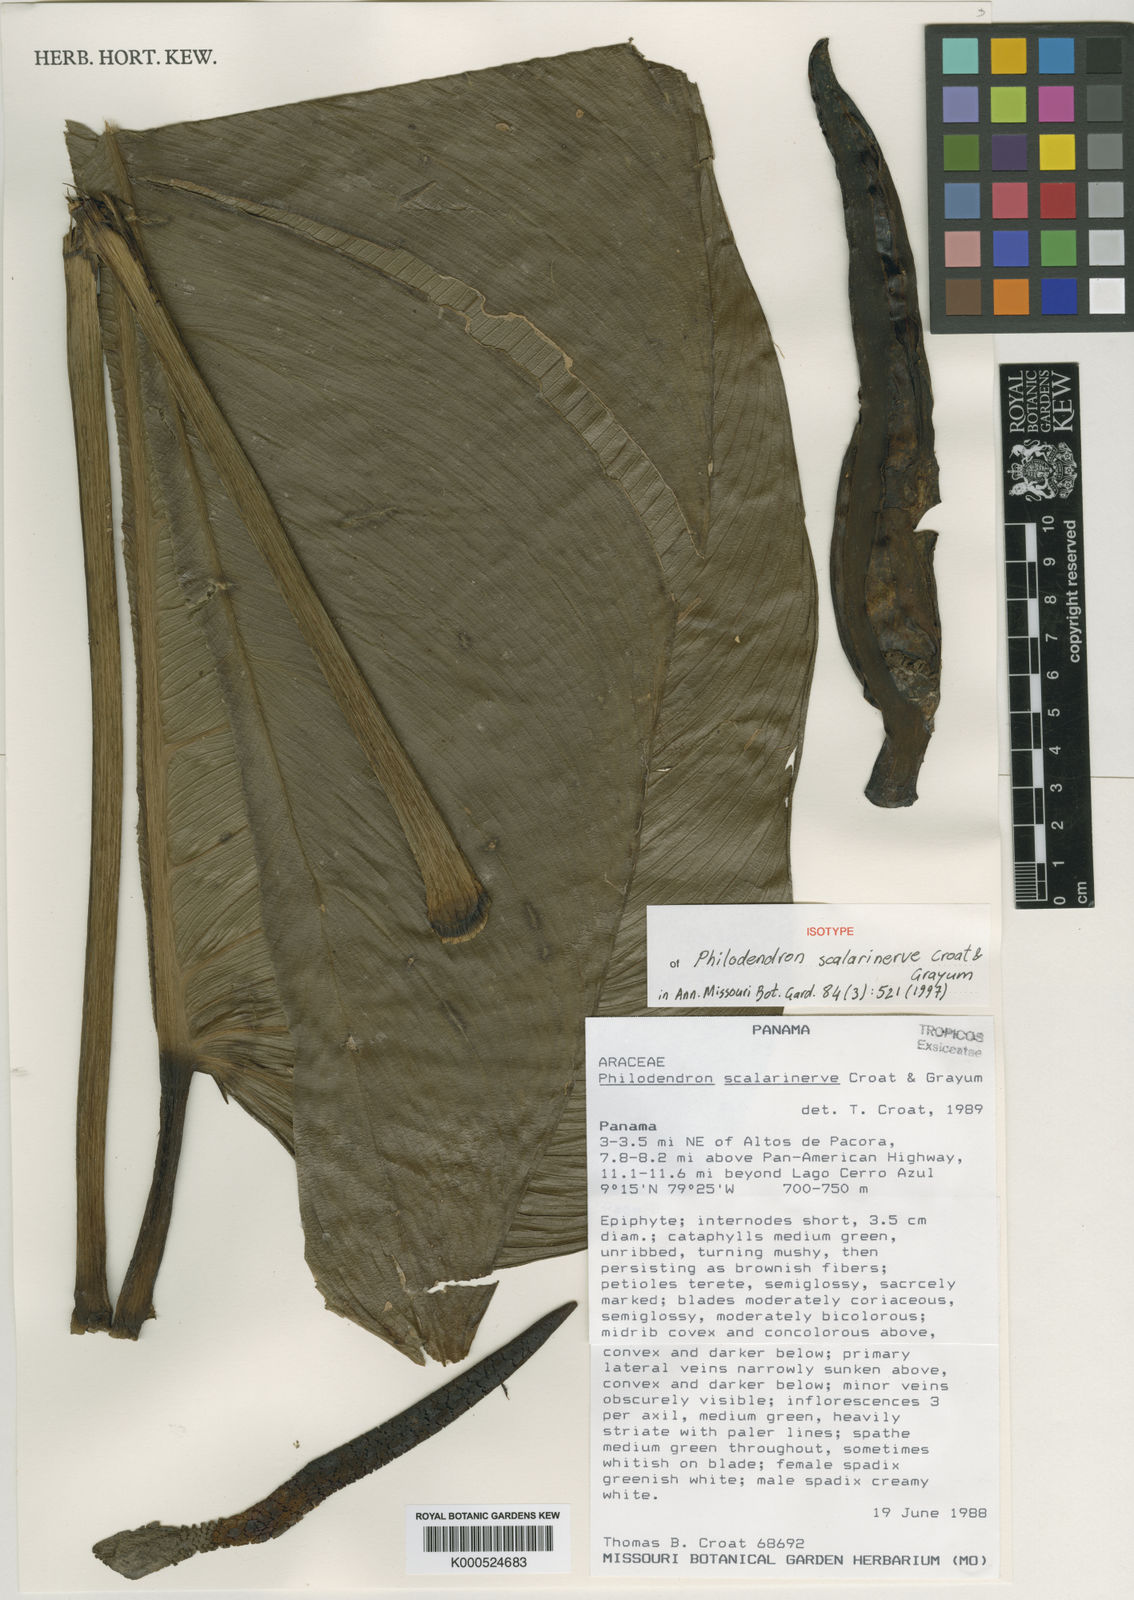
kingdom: Plantae
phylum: Tracheophyta
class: Liliopsida
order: Alismatales
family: Araceae
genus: Philodendron
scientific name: Philodendron scalarinerve
